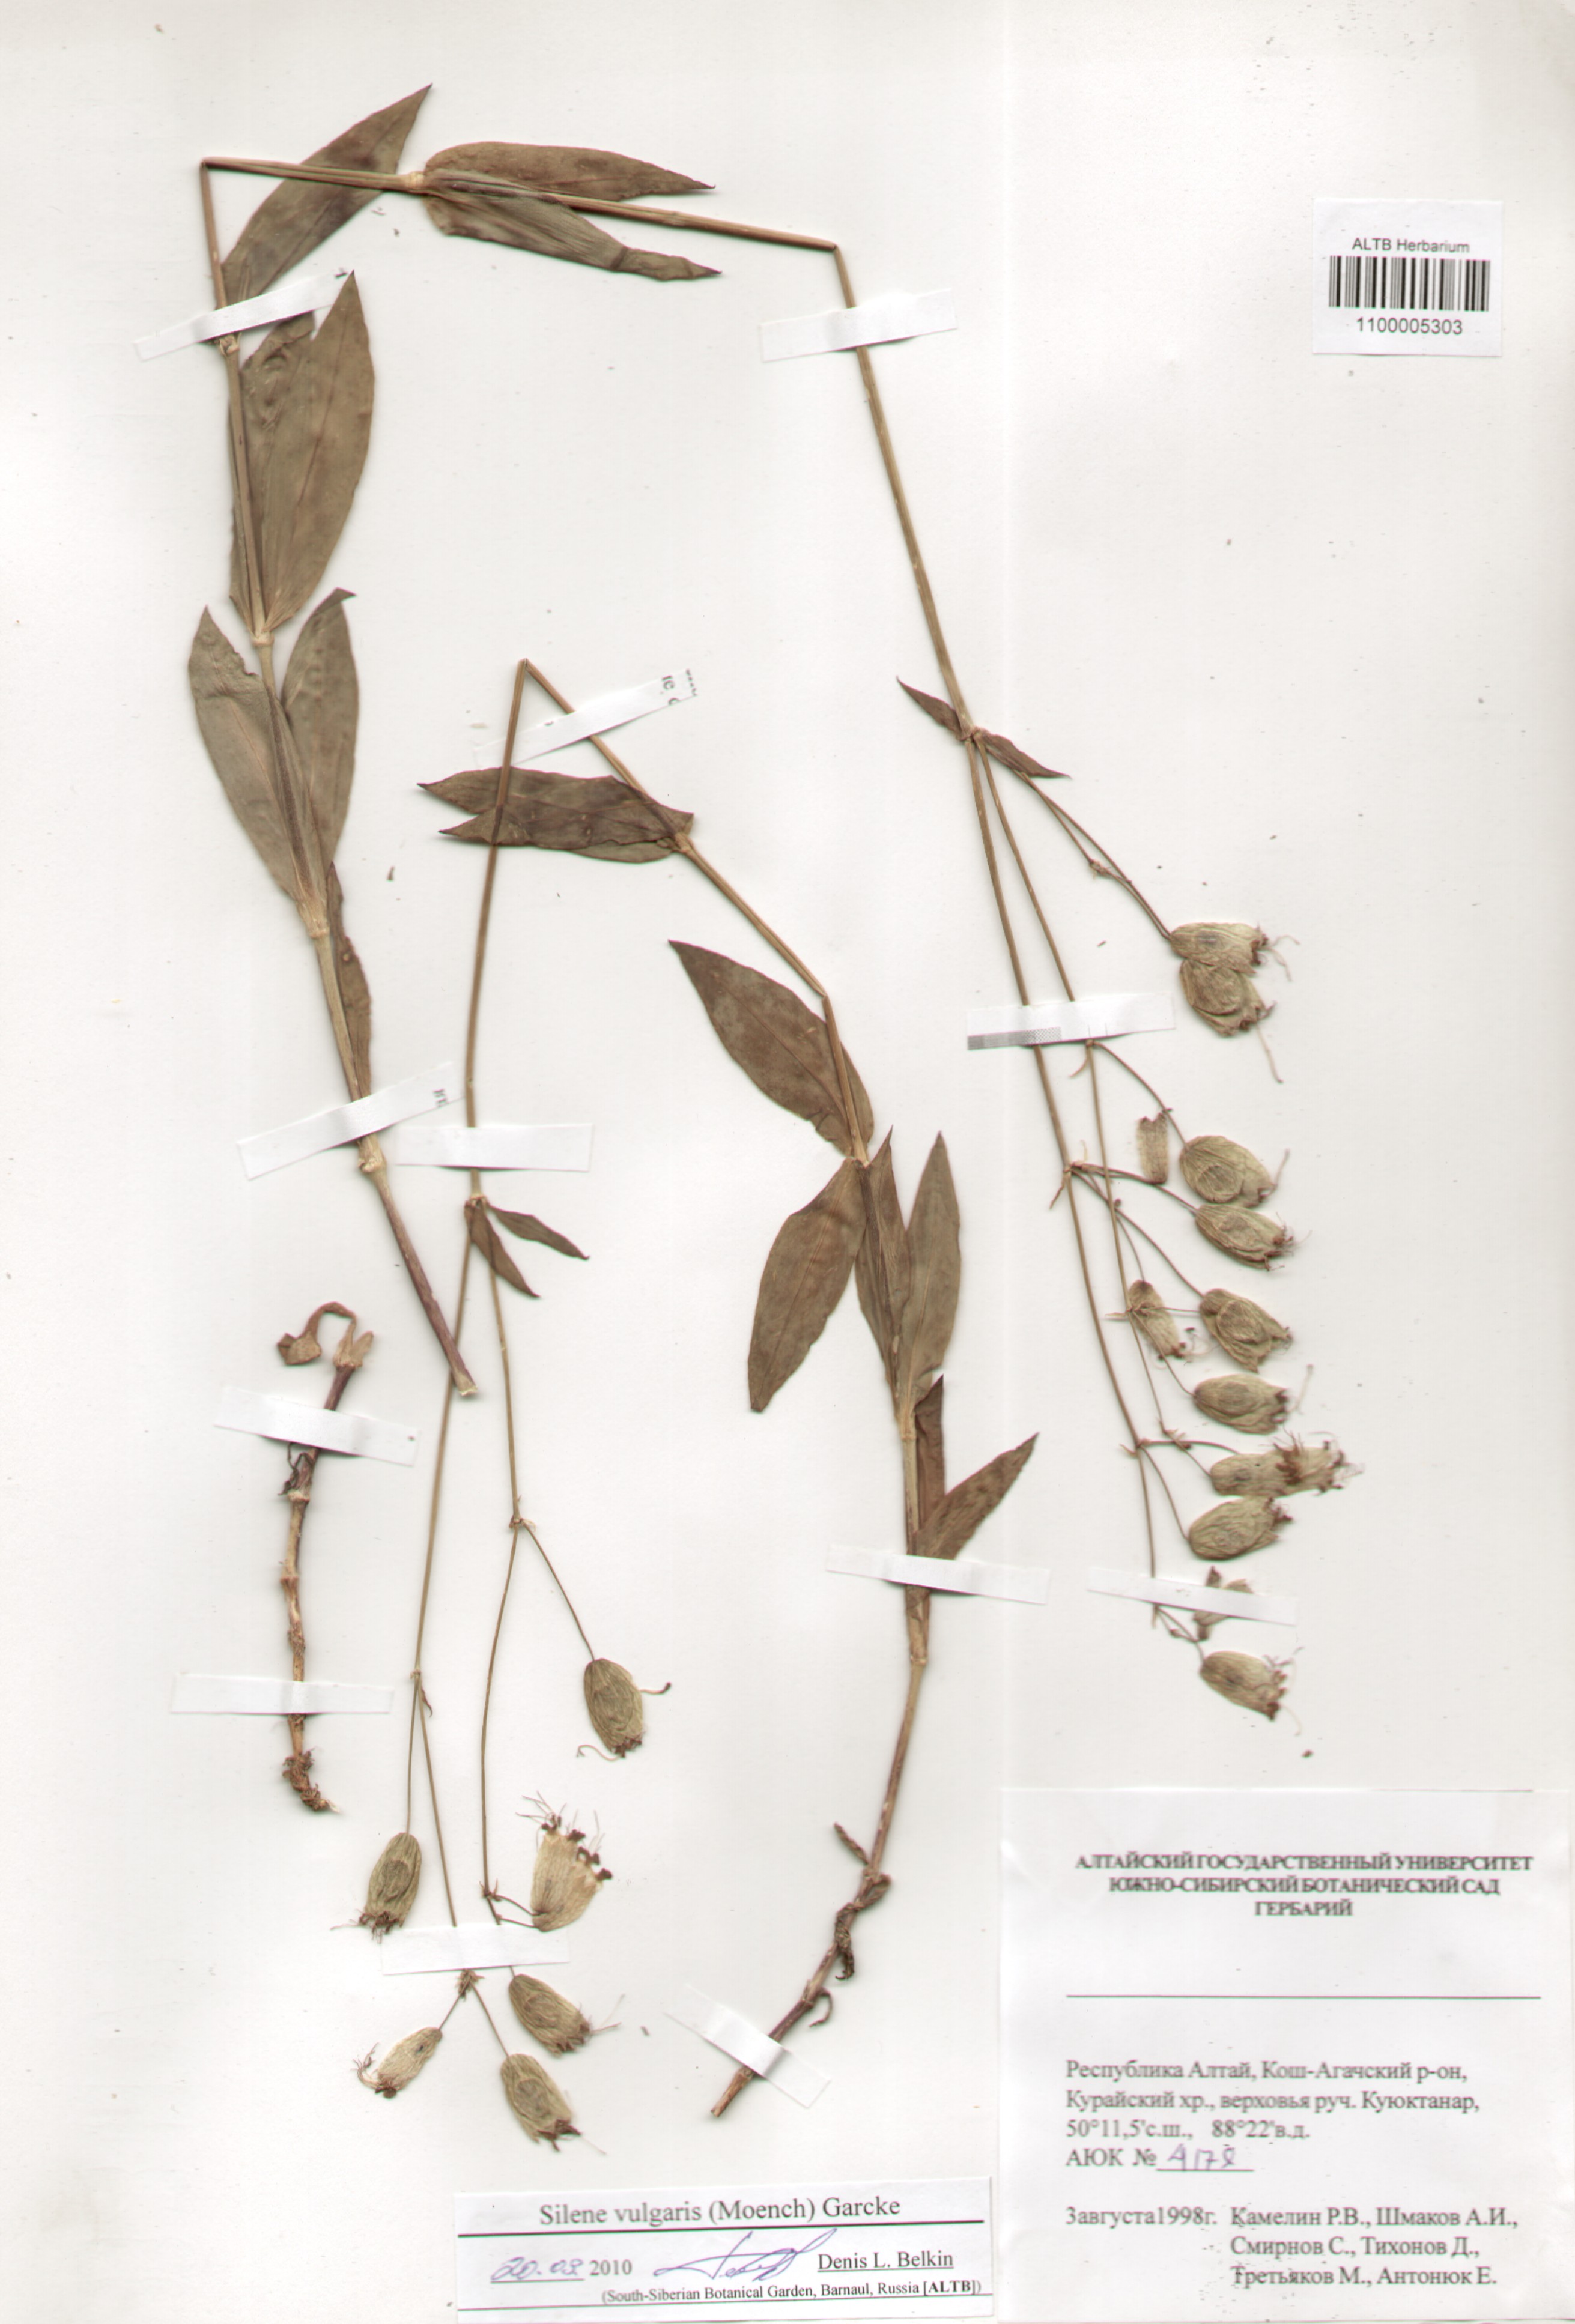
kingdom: Plantae
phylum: Tracheophyta
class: Magnoliopsida
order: Caryophyllales
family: Caryophyllaceae
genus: Silene
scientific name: Silene vulgaris
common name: Bladder campion
